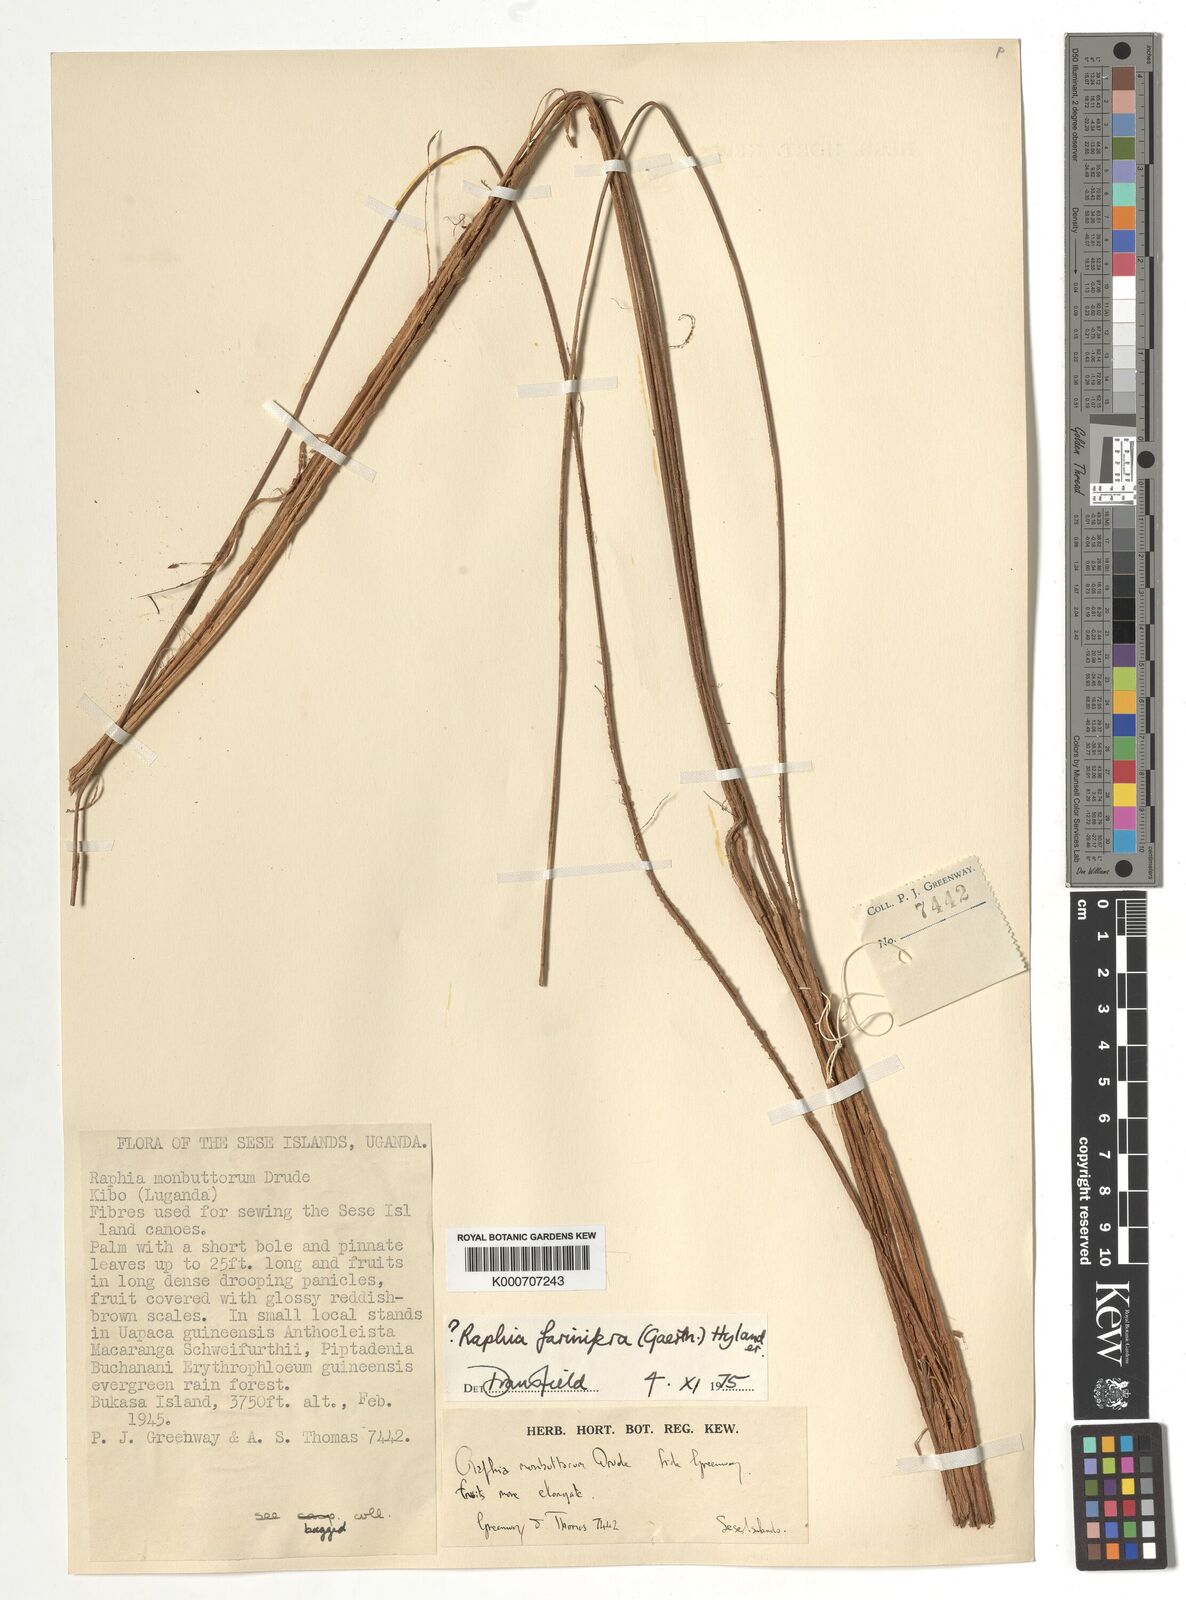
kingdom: Plantae
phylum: Tracheophyta
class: Liliopsida
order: Arecales
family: Arecaceae
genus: Raphia
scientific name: Raphia
